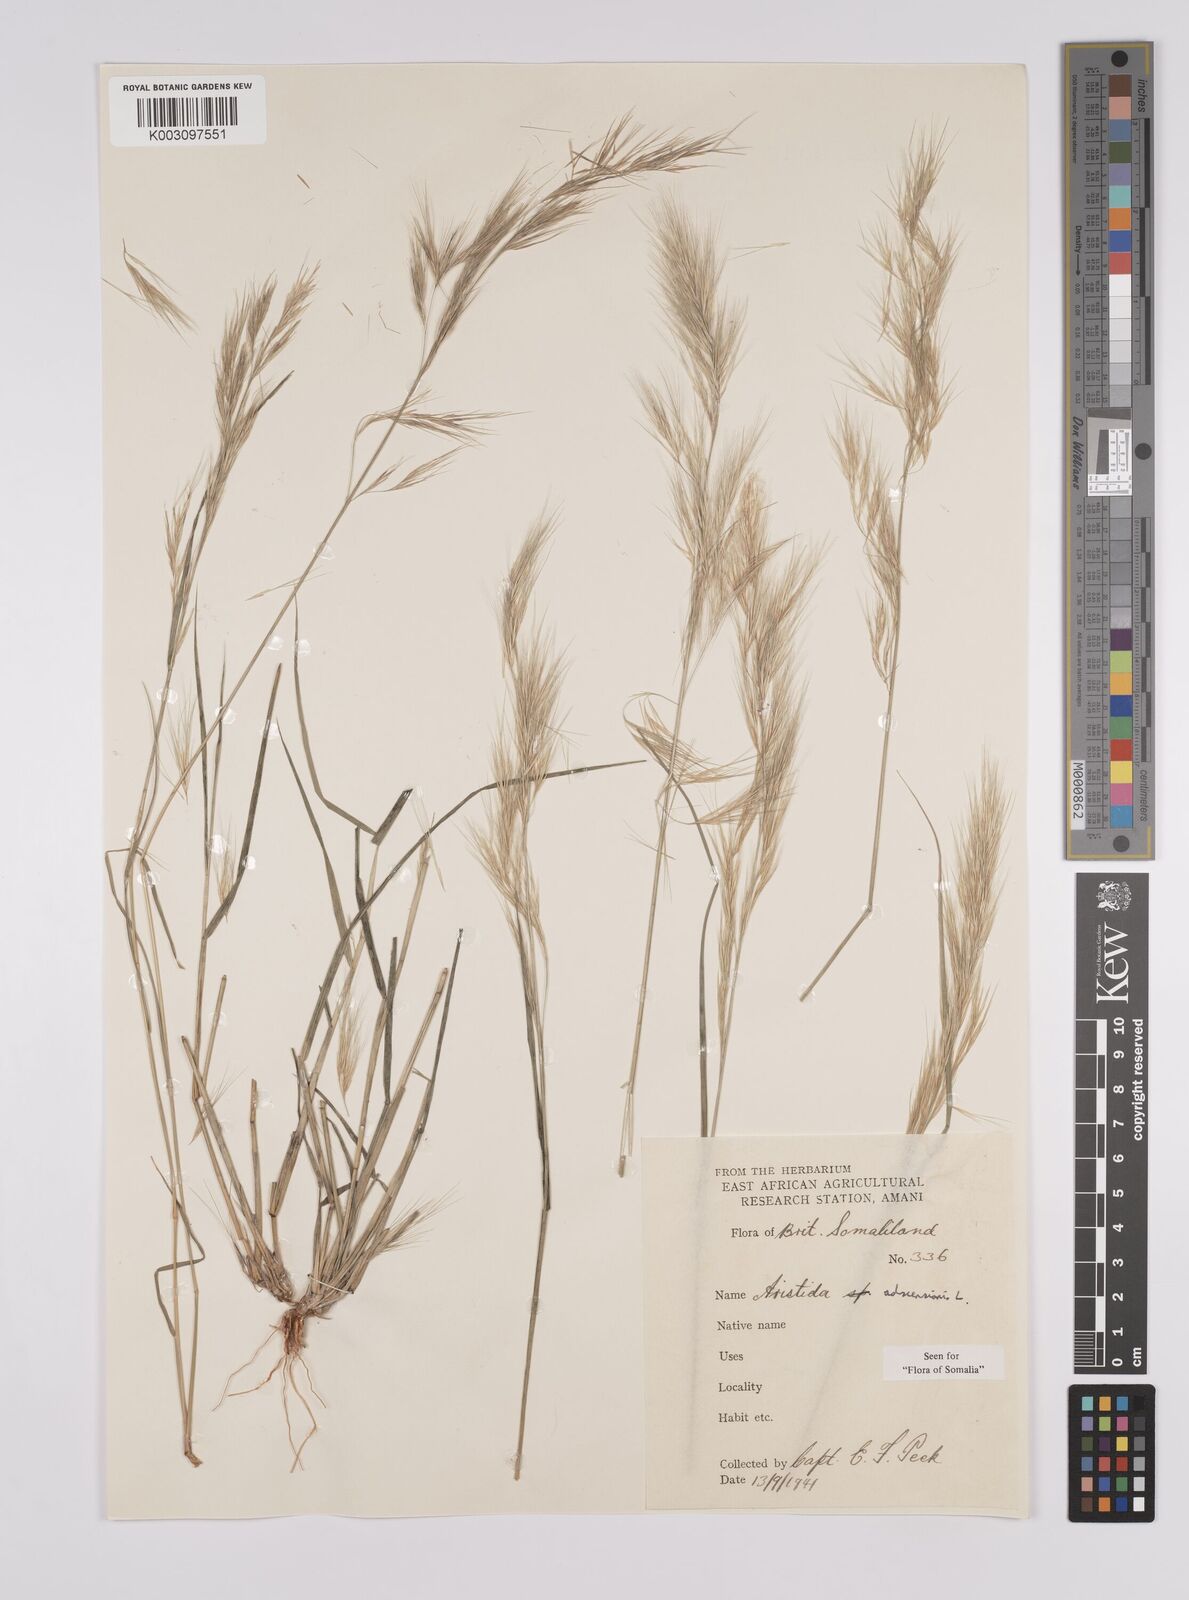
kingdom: Plantae
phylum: Tracheophyta
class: Liliopsida
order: Poales
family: Poaceae
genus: Aristida
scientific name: Aristida adscensionis
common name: Sixweeks threeawn
